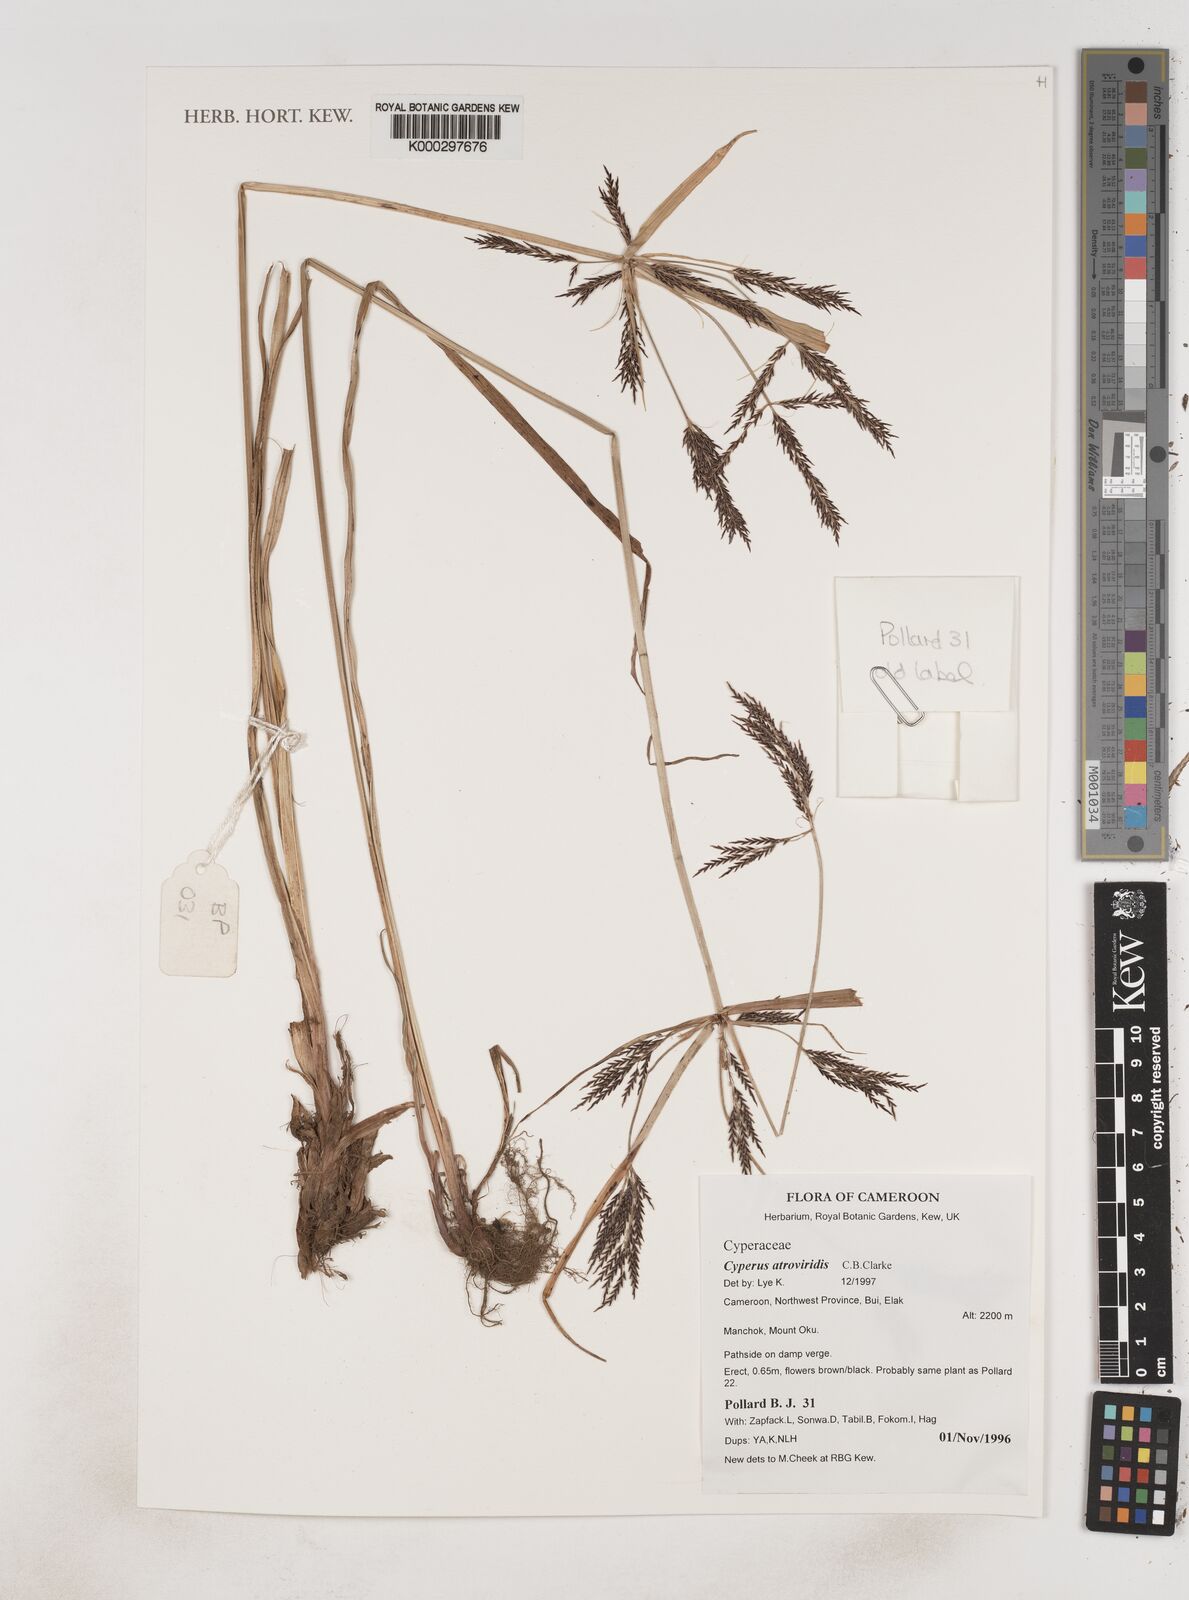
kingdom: Plantae
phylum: Tracheophyta
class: Liliopsida
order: Poales
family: Cyperaceae
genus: Cyperus
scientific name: Cyperus aterrimus
